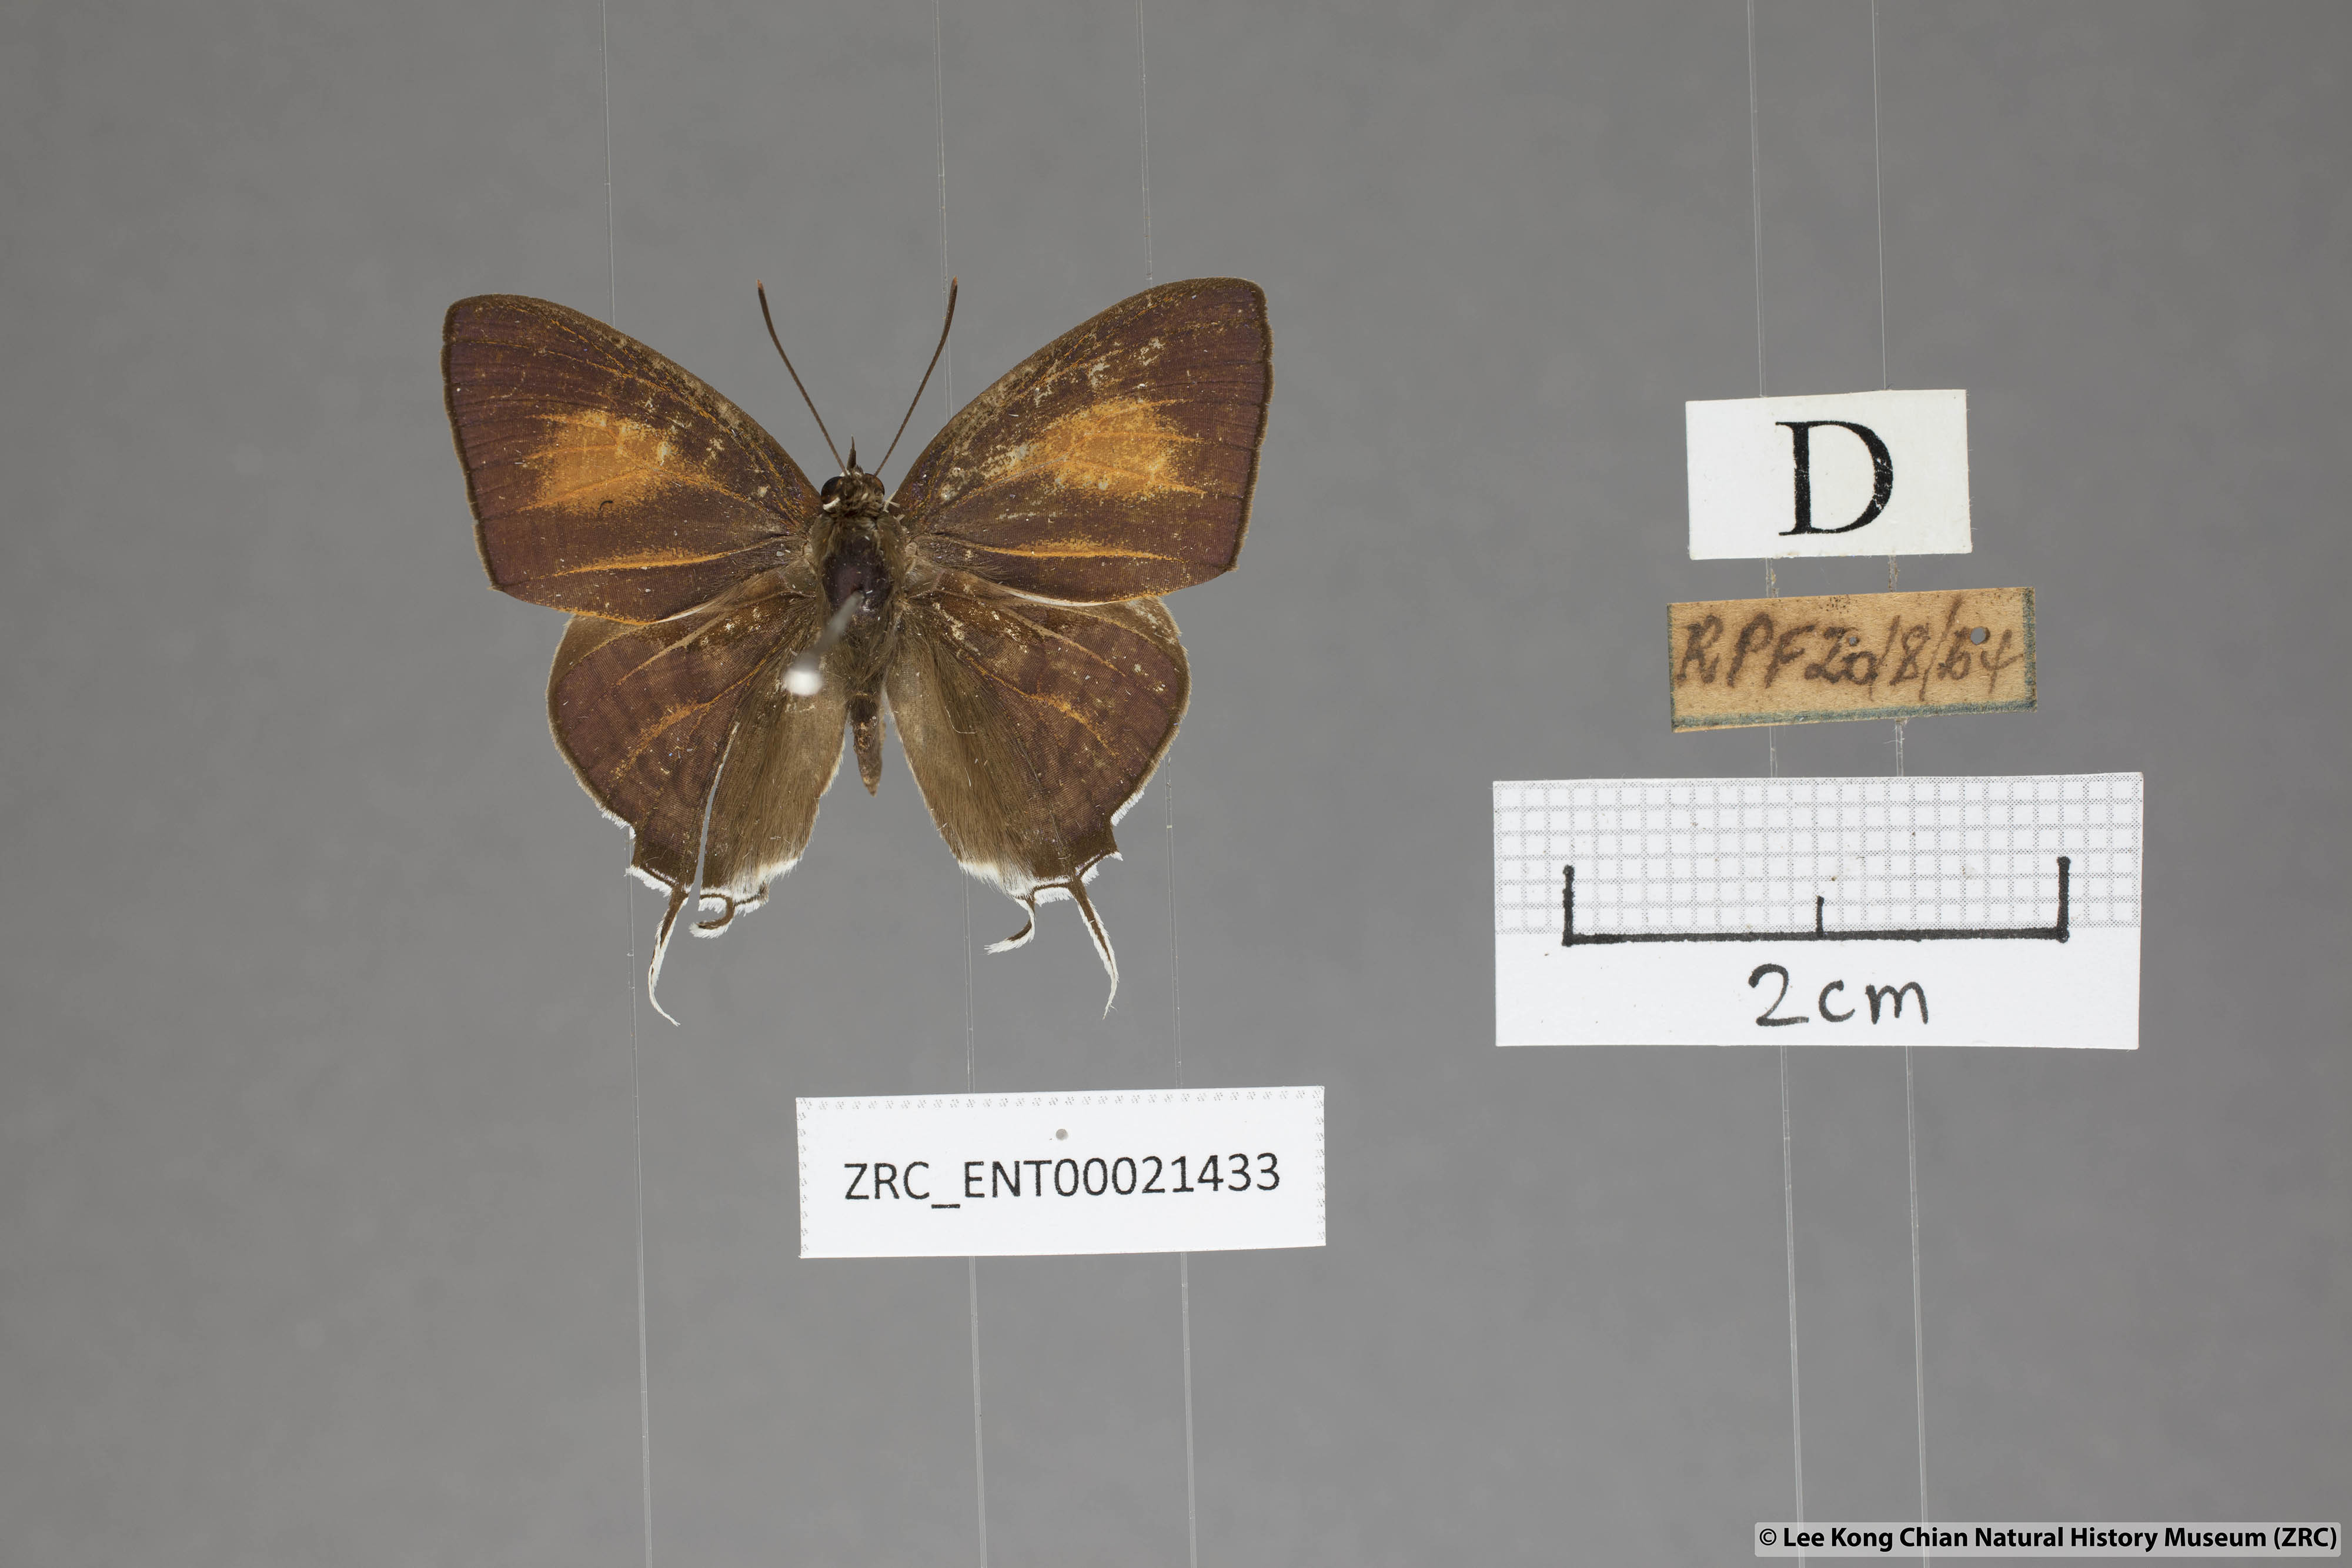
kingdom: Animalia
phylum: Arthropoda
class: Insecta
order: Lepidoptera
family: Lycaenidae
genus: Drupadia
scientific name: Drupadia theda
